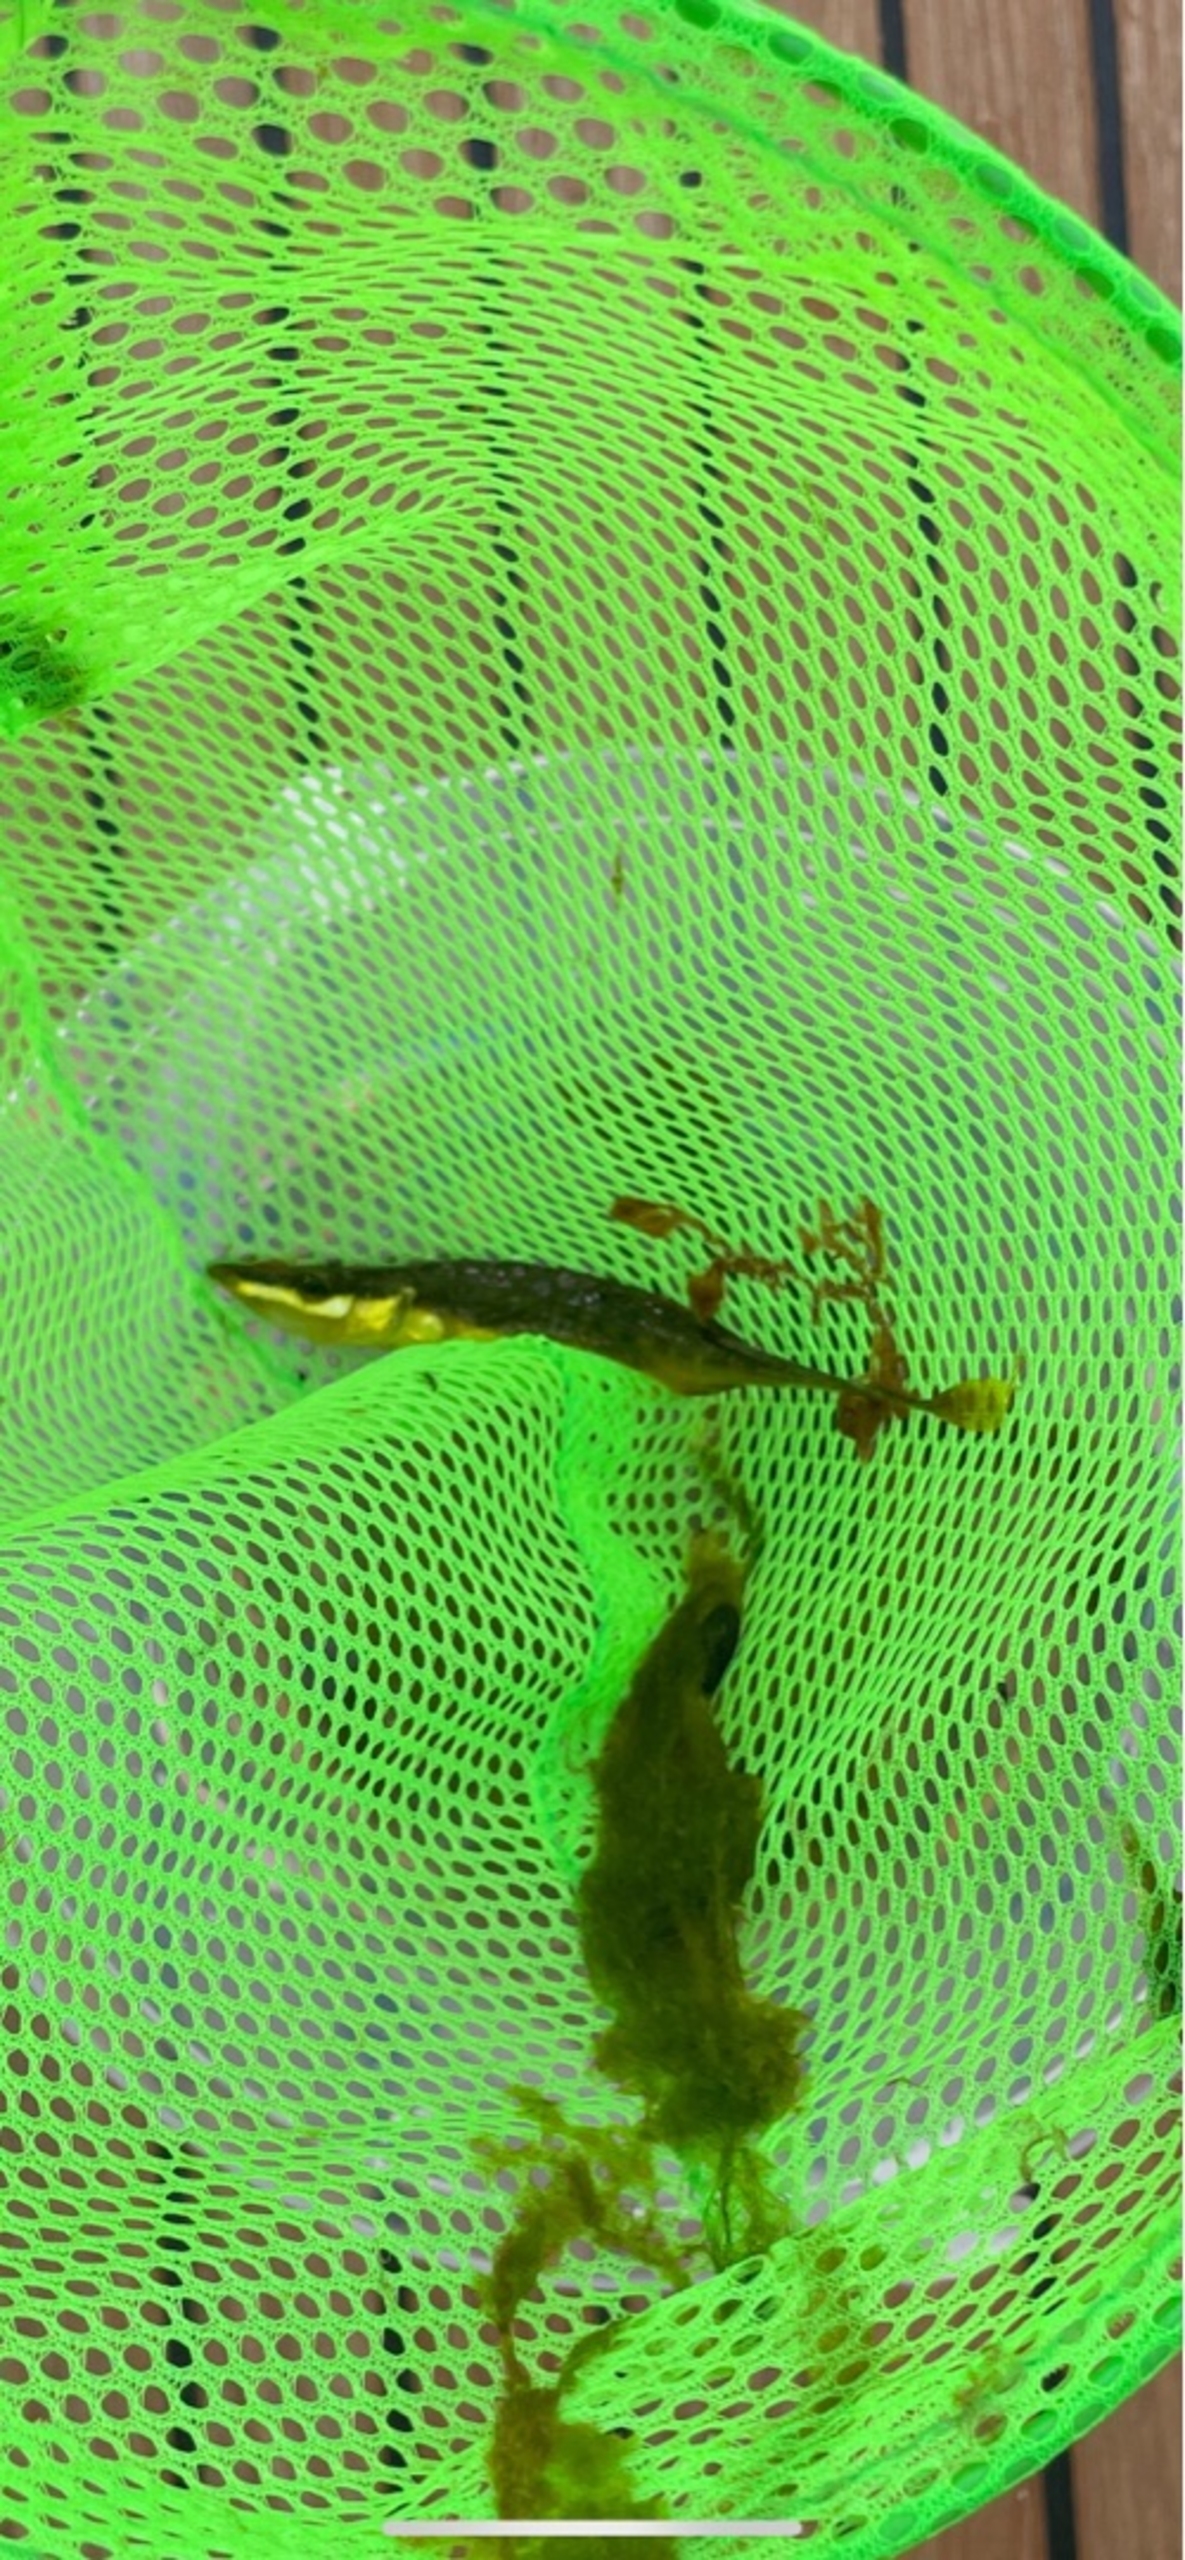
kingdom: Animalia
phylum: Chordata
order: Gasterosteiformes
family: Gasterosteidae
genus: Spinachia
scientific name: Spinachia spinachia
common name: Tangsnarre
